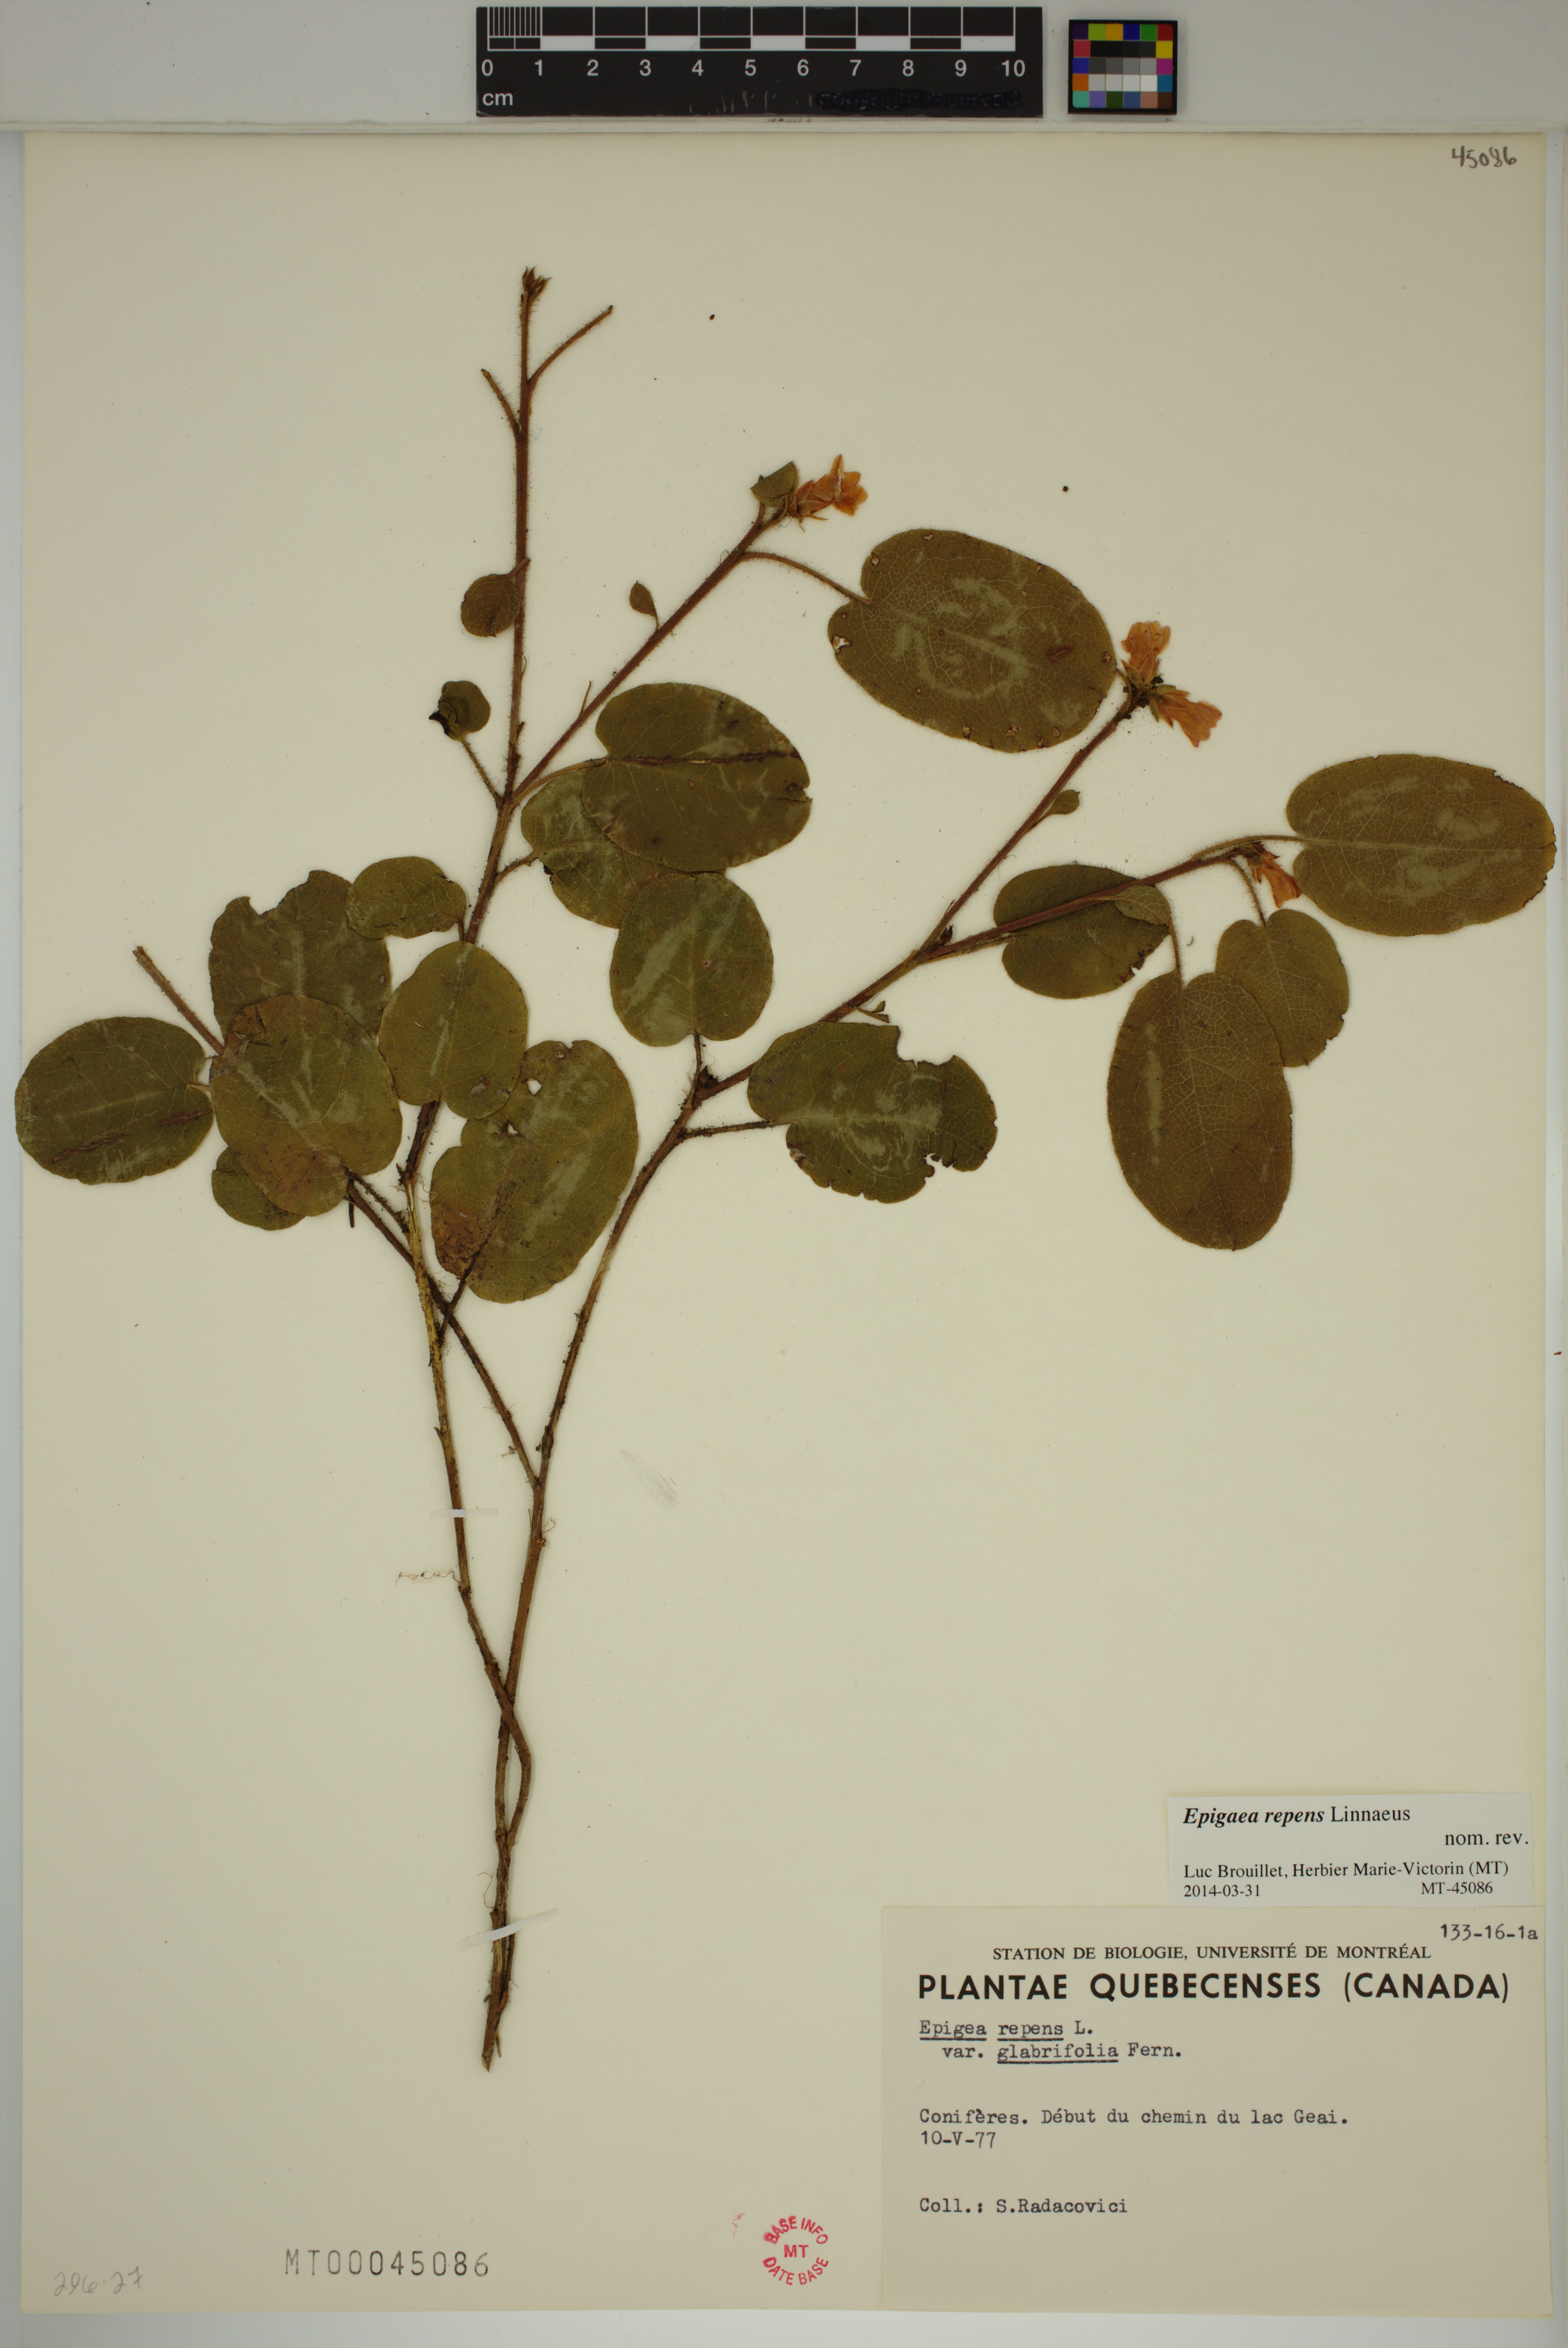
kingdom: Plantae
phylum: Tracheophyta
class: Magnoliopsida
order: Ericales
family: Ericaceae
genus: Epigaea
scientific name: Epigaea repens
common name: Gravelroot
